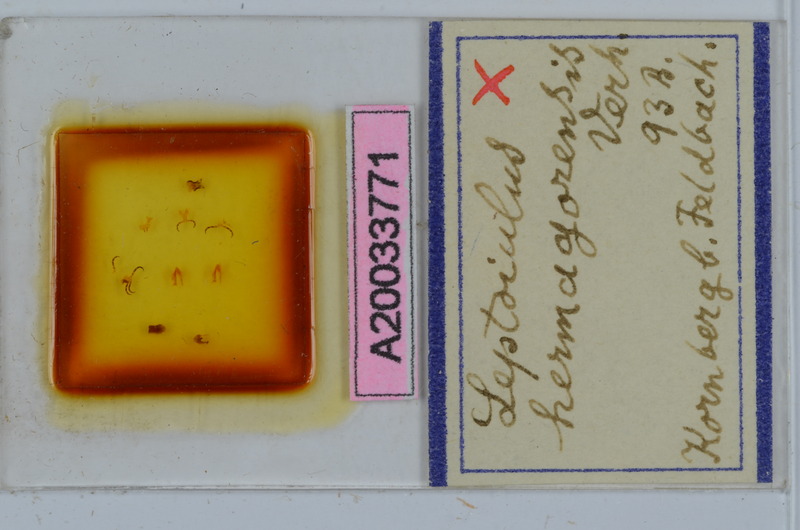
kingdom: Animalia
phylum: Arthropoda
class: Diplopoda
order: Julida
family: Julidae
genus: Leptoiulus
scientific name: Leptoiulus vagabundus
